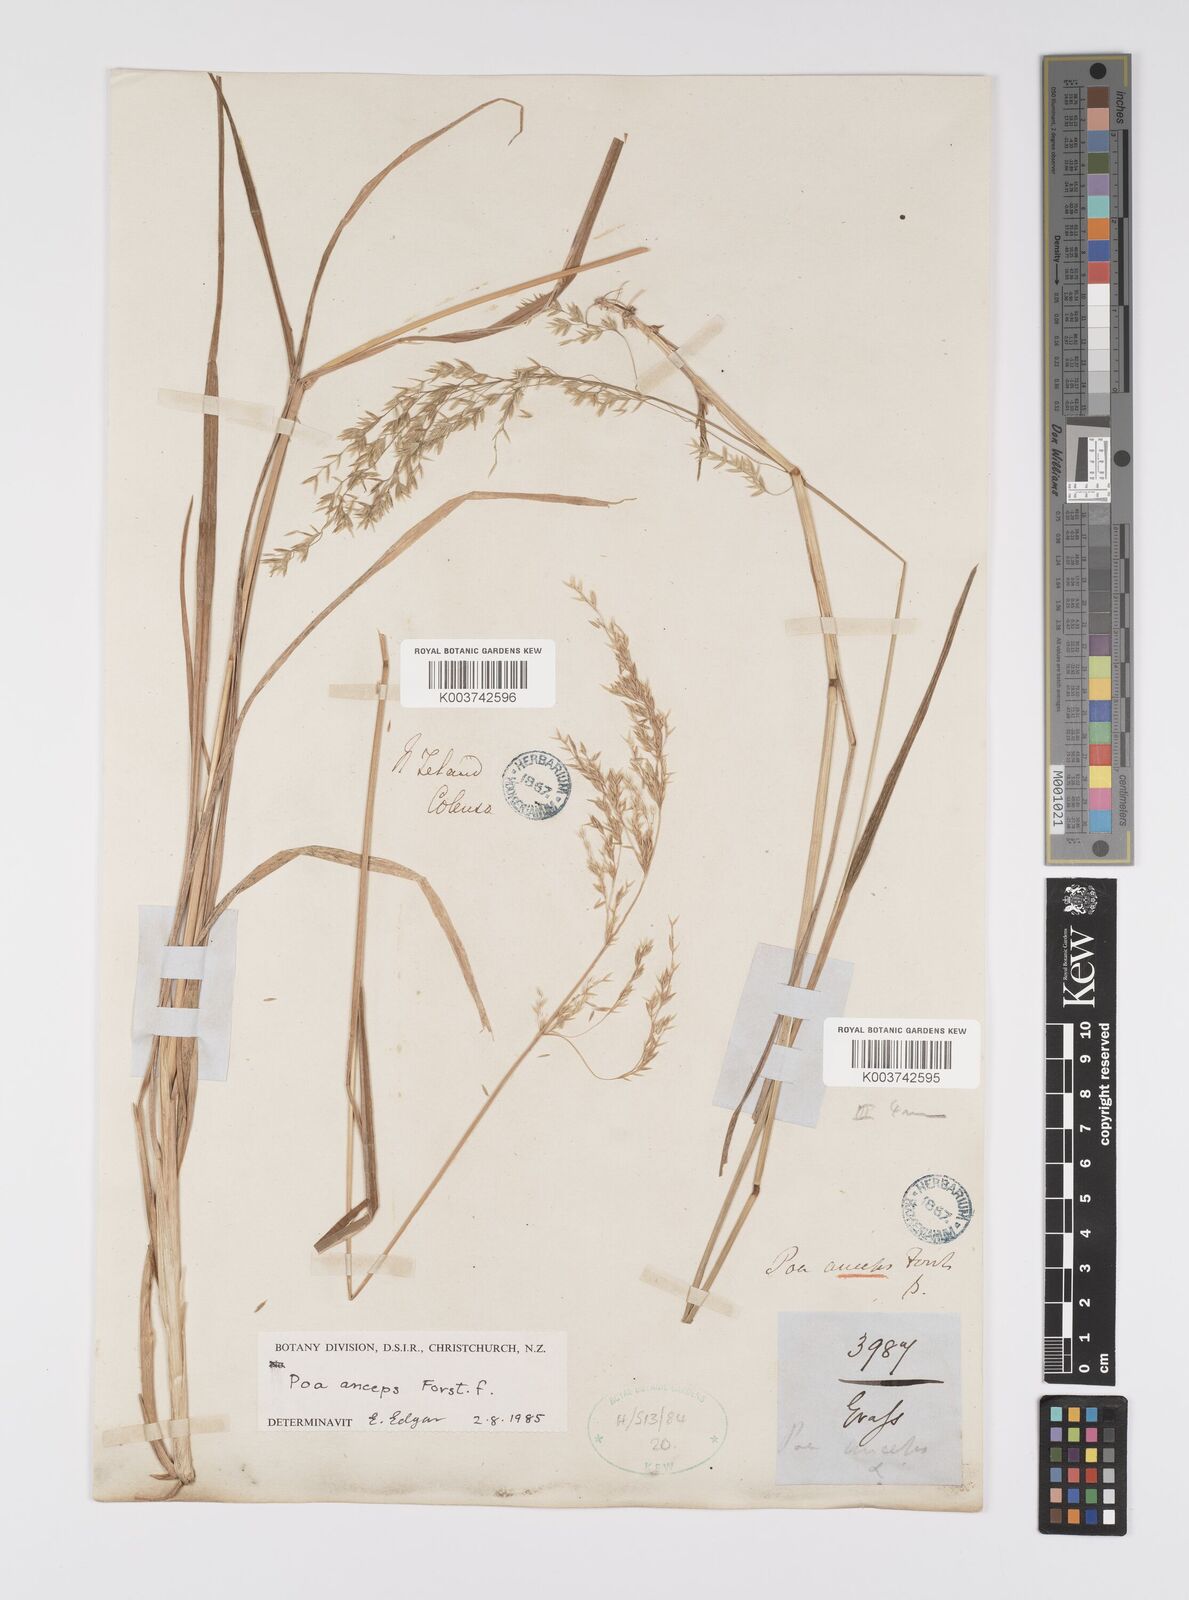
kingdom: Plantae
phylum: Tracheophyta
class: Liliopsida
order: Poales
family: Poaceae
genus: Poa
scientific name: Poa anceps
